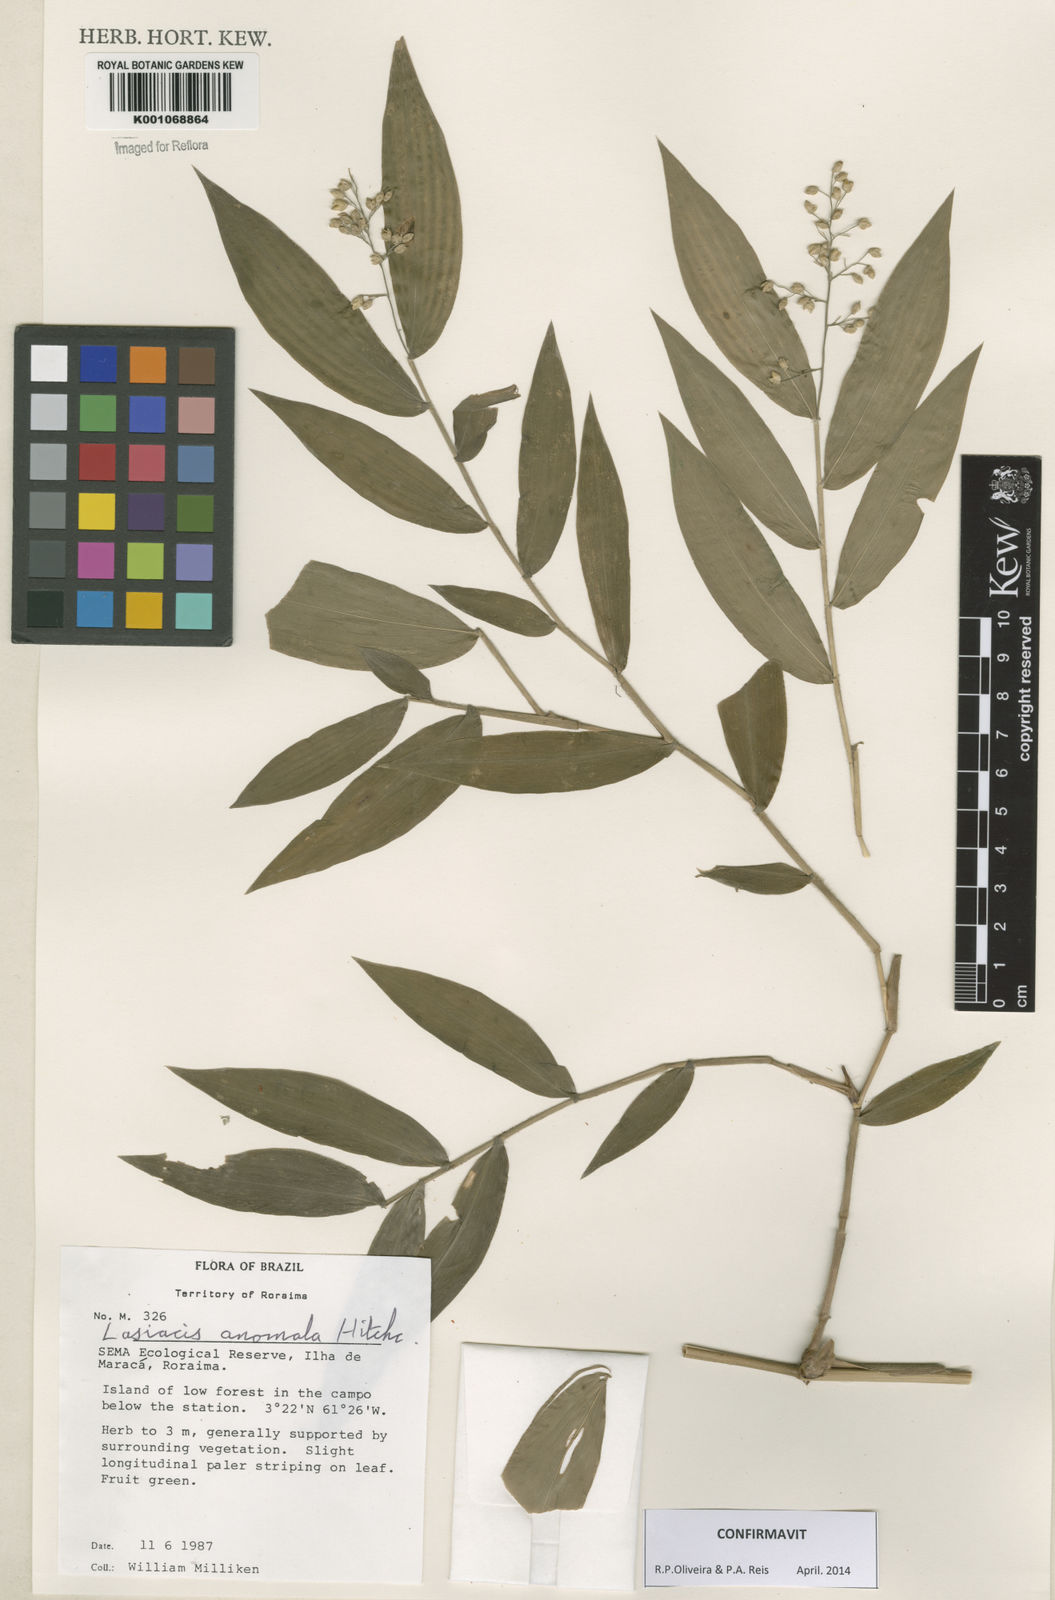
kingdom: Plantae
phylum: Tracheophyta
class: Liliopsida
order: Poales
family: Poaceae
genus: Lasiacis
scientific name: Lasiacis anomala
